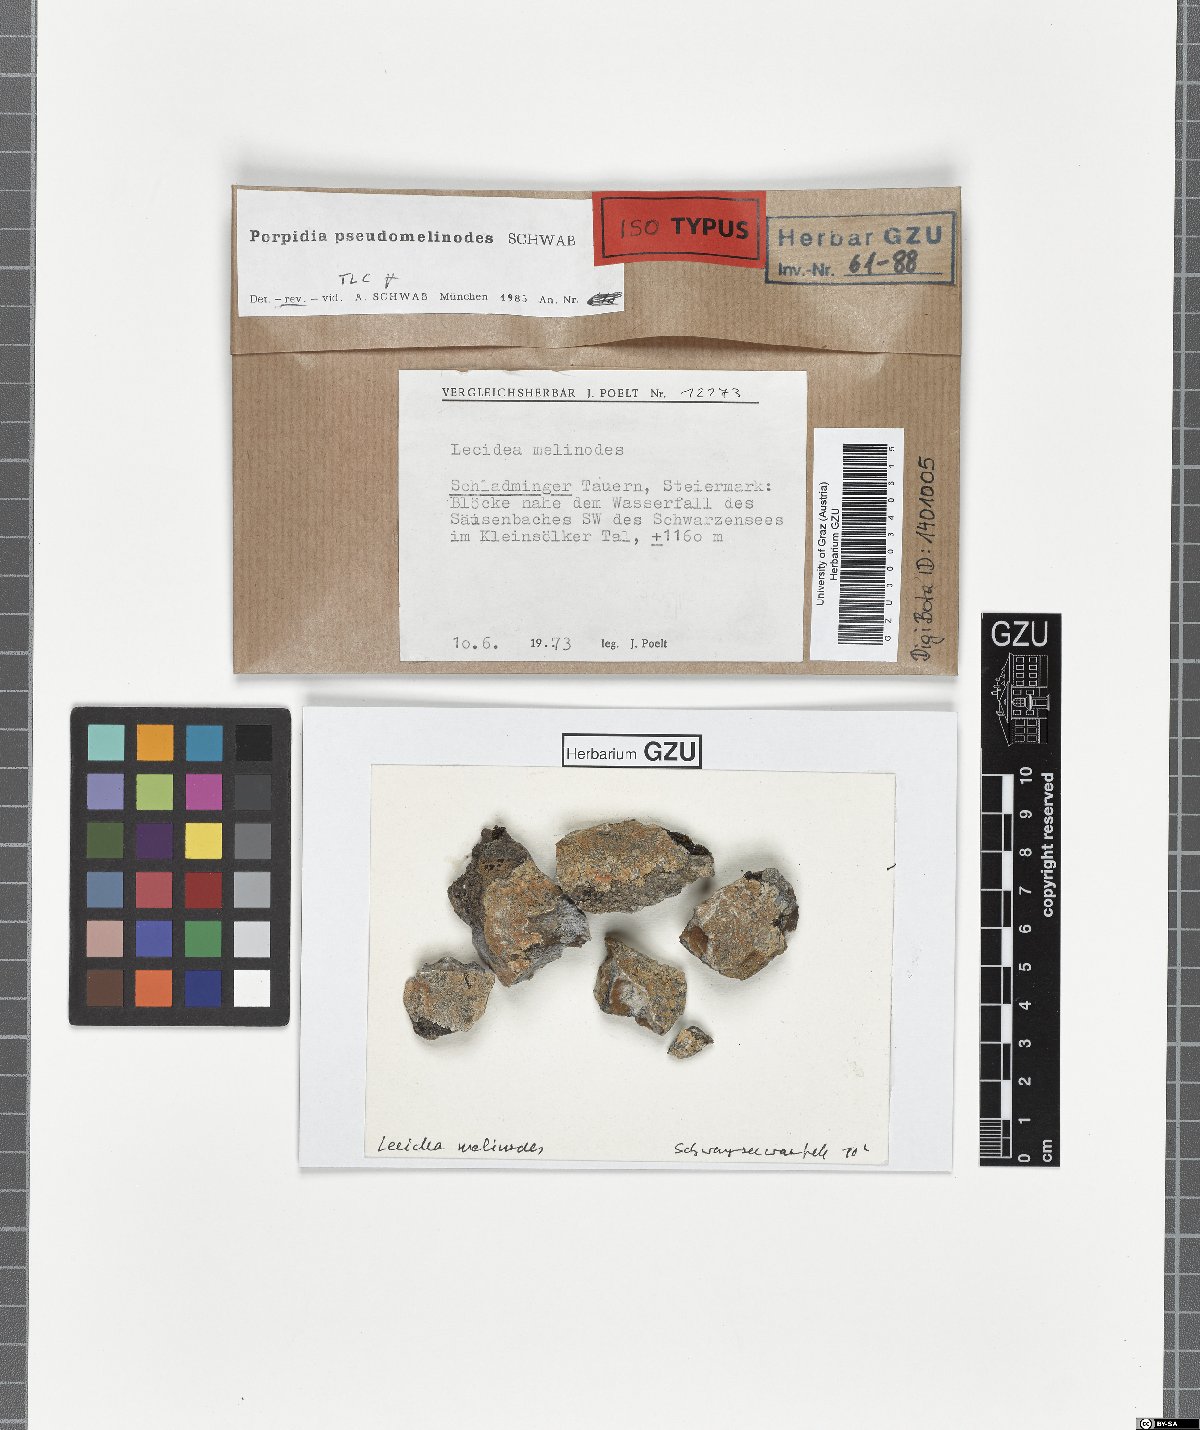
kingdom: Fungi
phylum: Ascomycota
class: Lecanoromycetes
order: Lecideales
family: Lecideaceae
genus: Porpidia
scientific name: Porpidia ochrolemma
